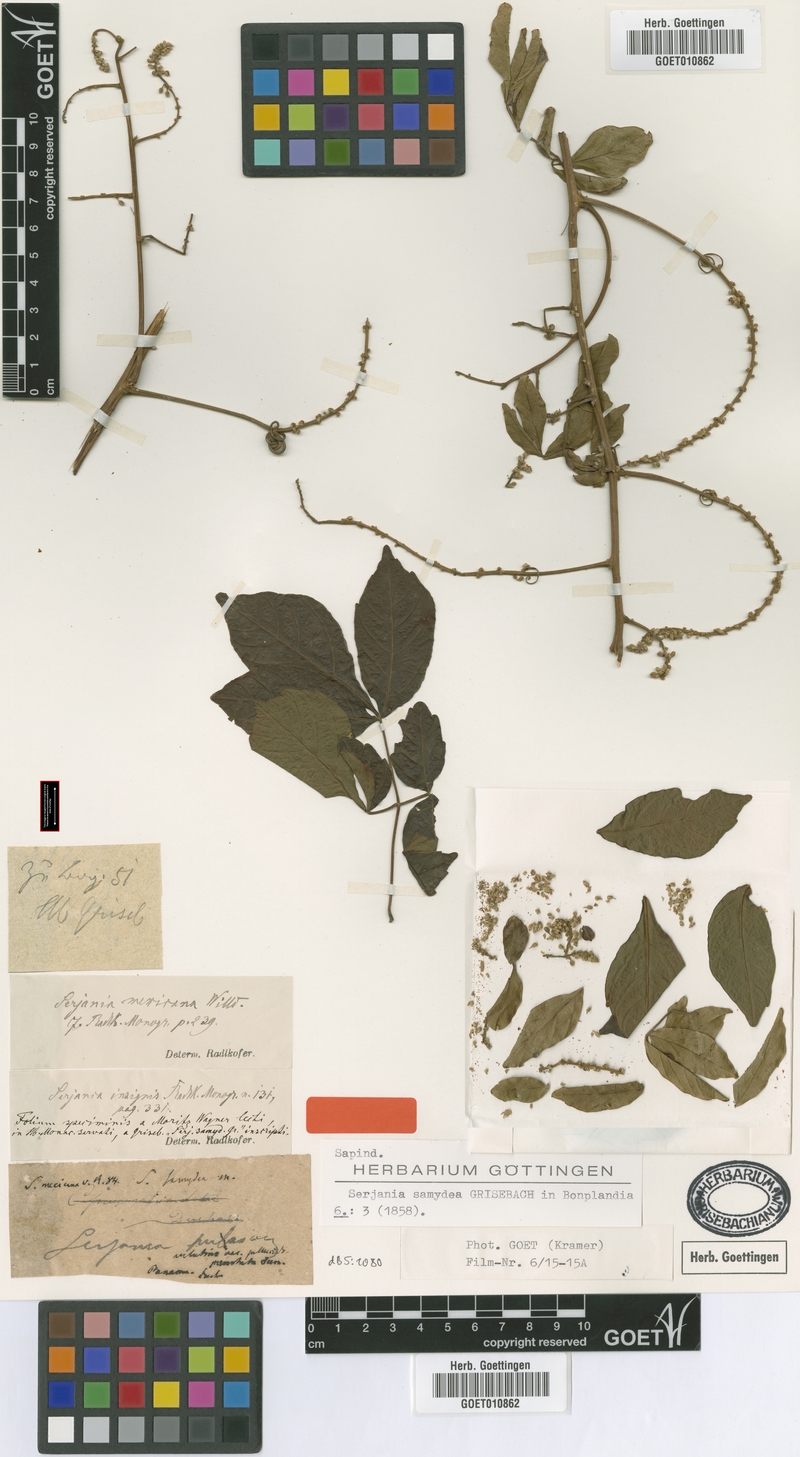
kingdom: Plantae
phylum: Tracheophyta
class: Magnoliopsida
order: Sapindales
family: Sapindaceae
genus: Serjania
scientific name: Serjania mexicana
